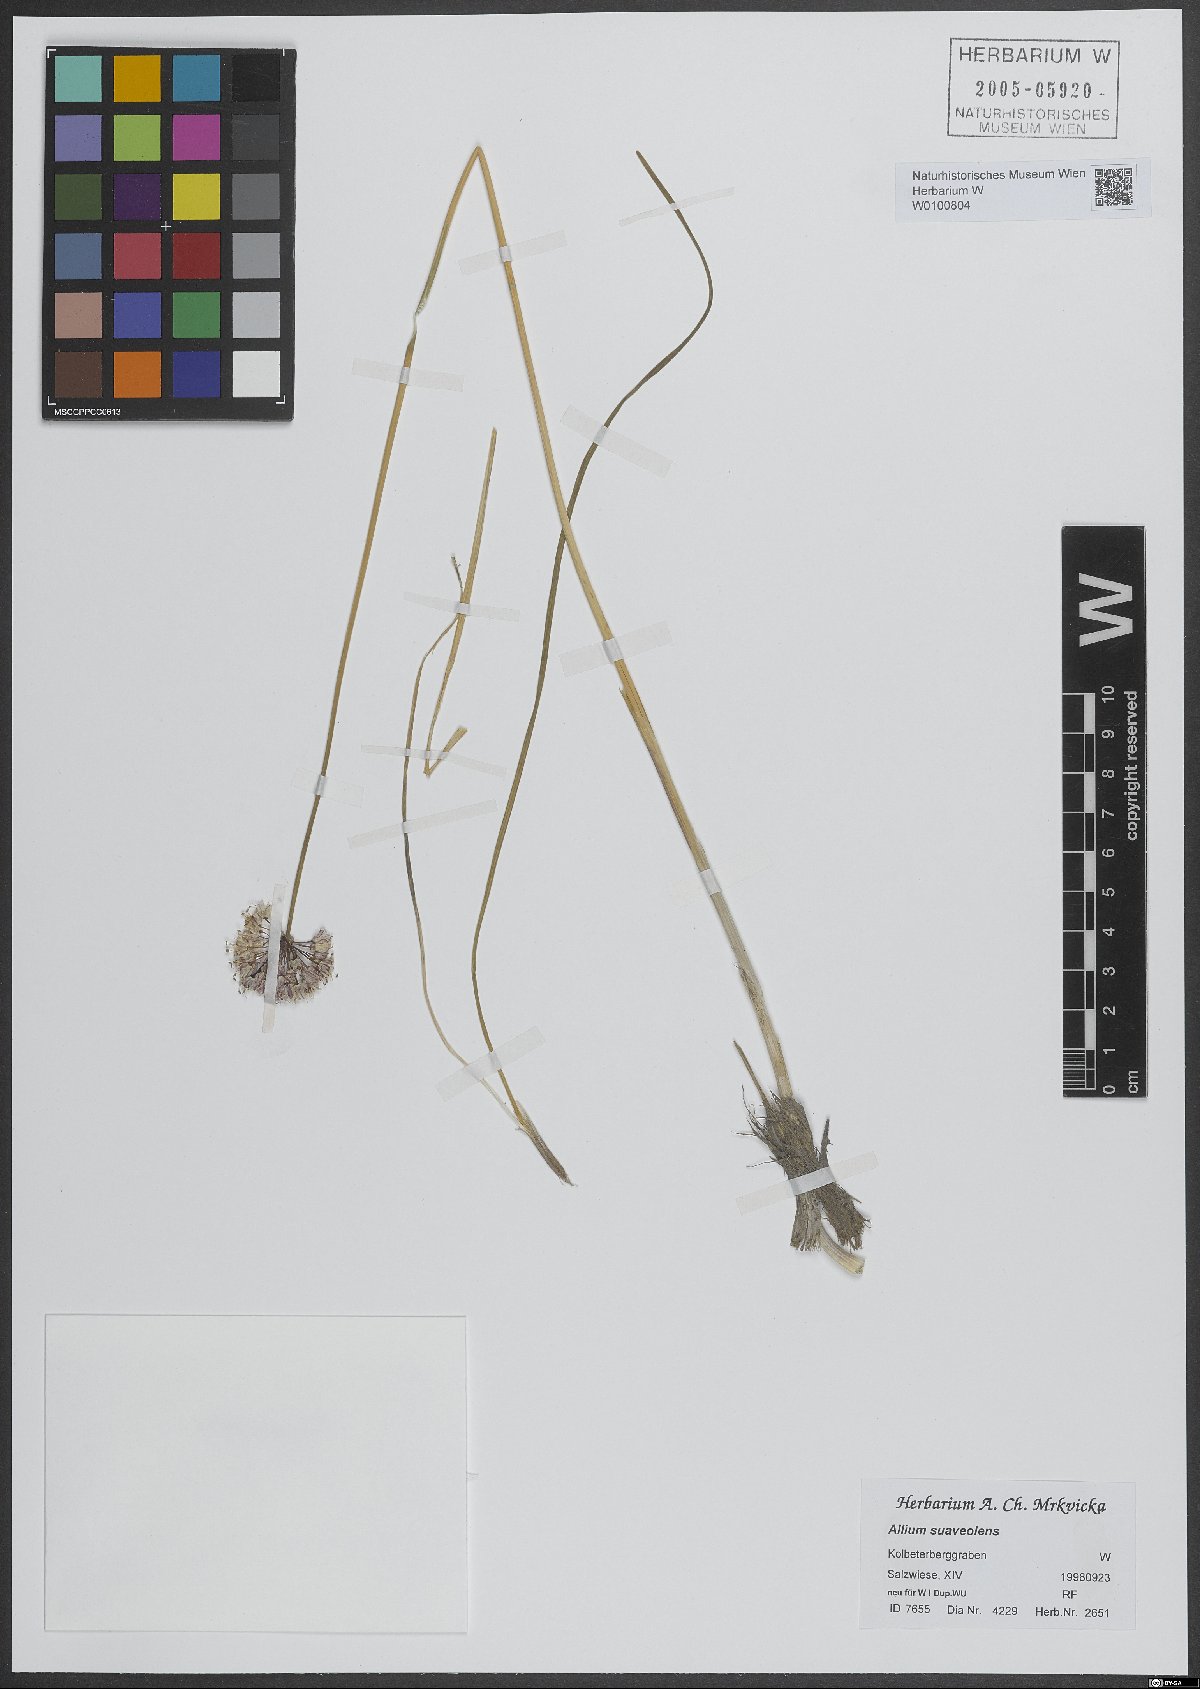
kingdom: Plantae
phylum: Tracheophyta
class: Liliopsida
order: Asparagales
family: Amaryllidaceae
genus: Allium
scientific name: Allium suaveolens
